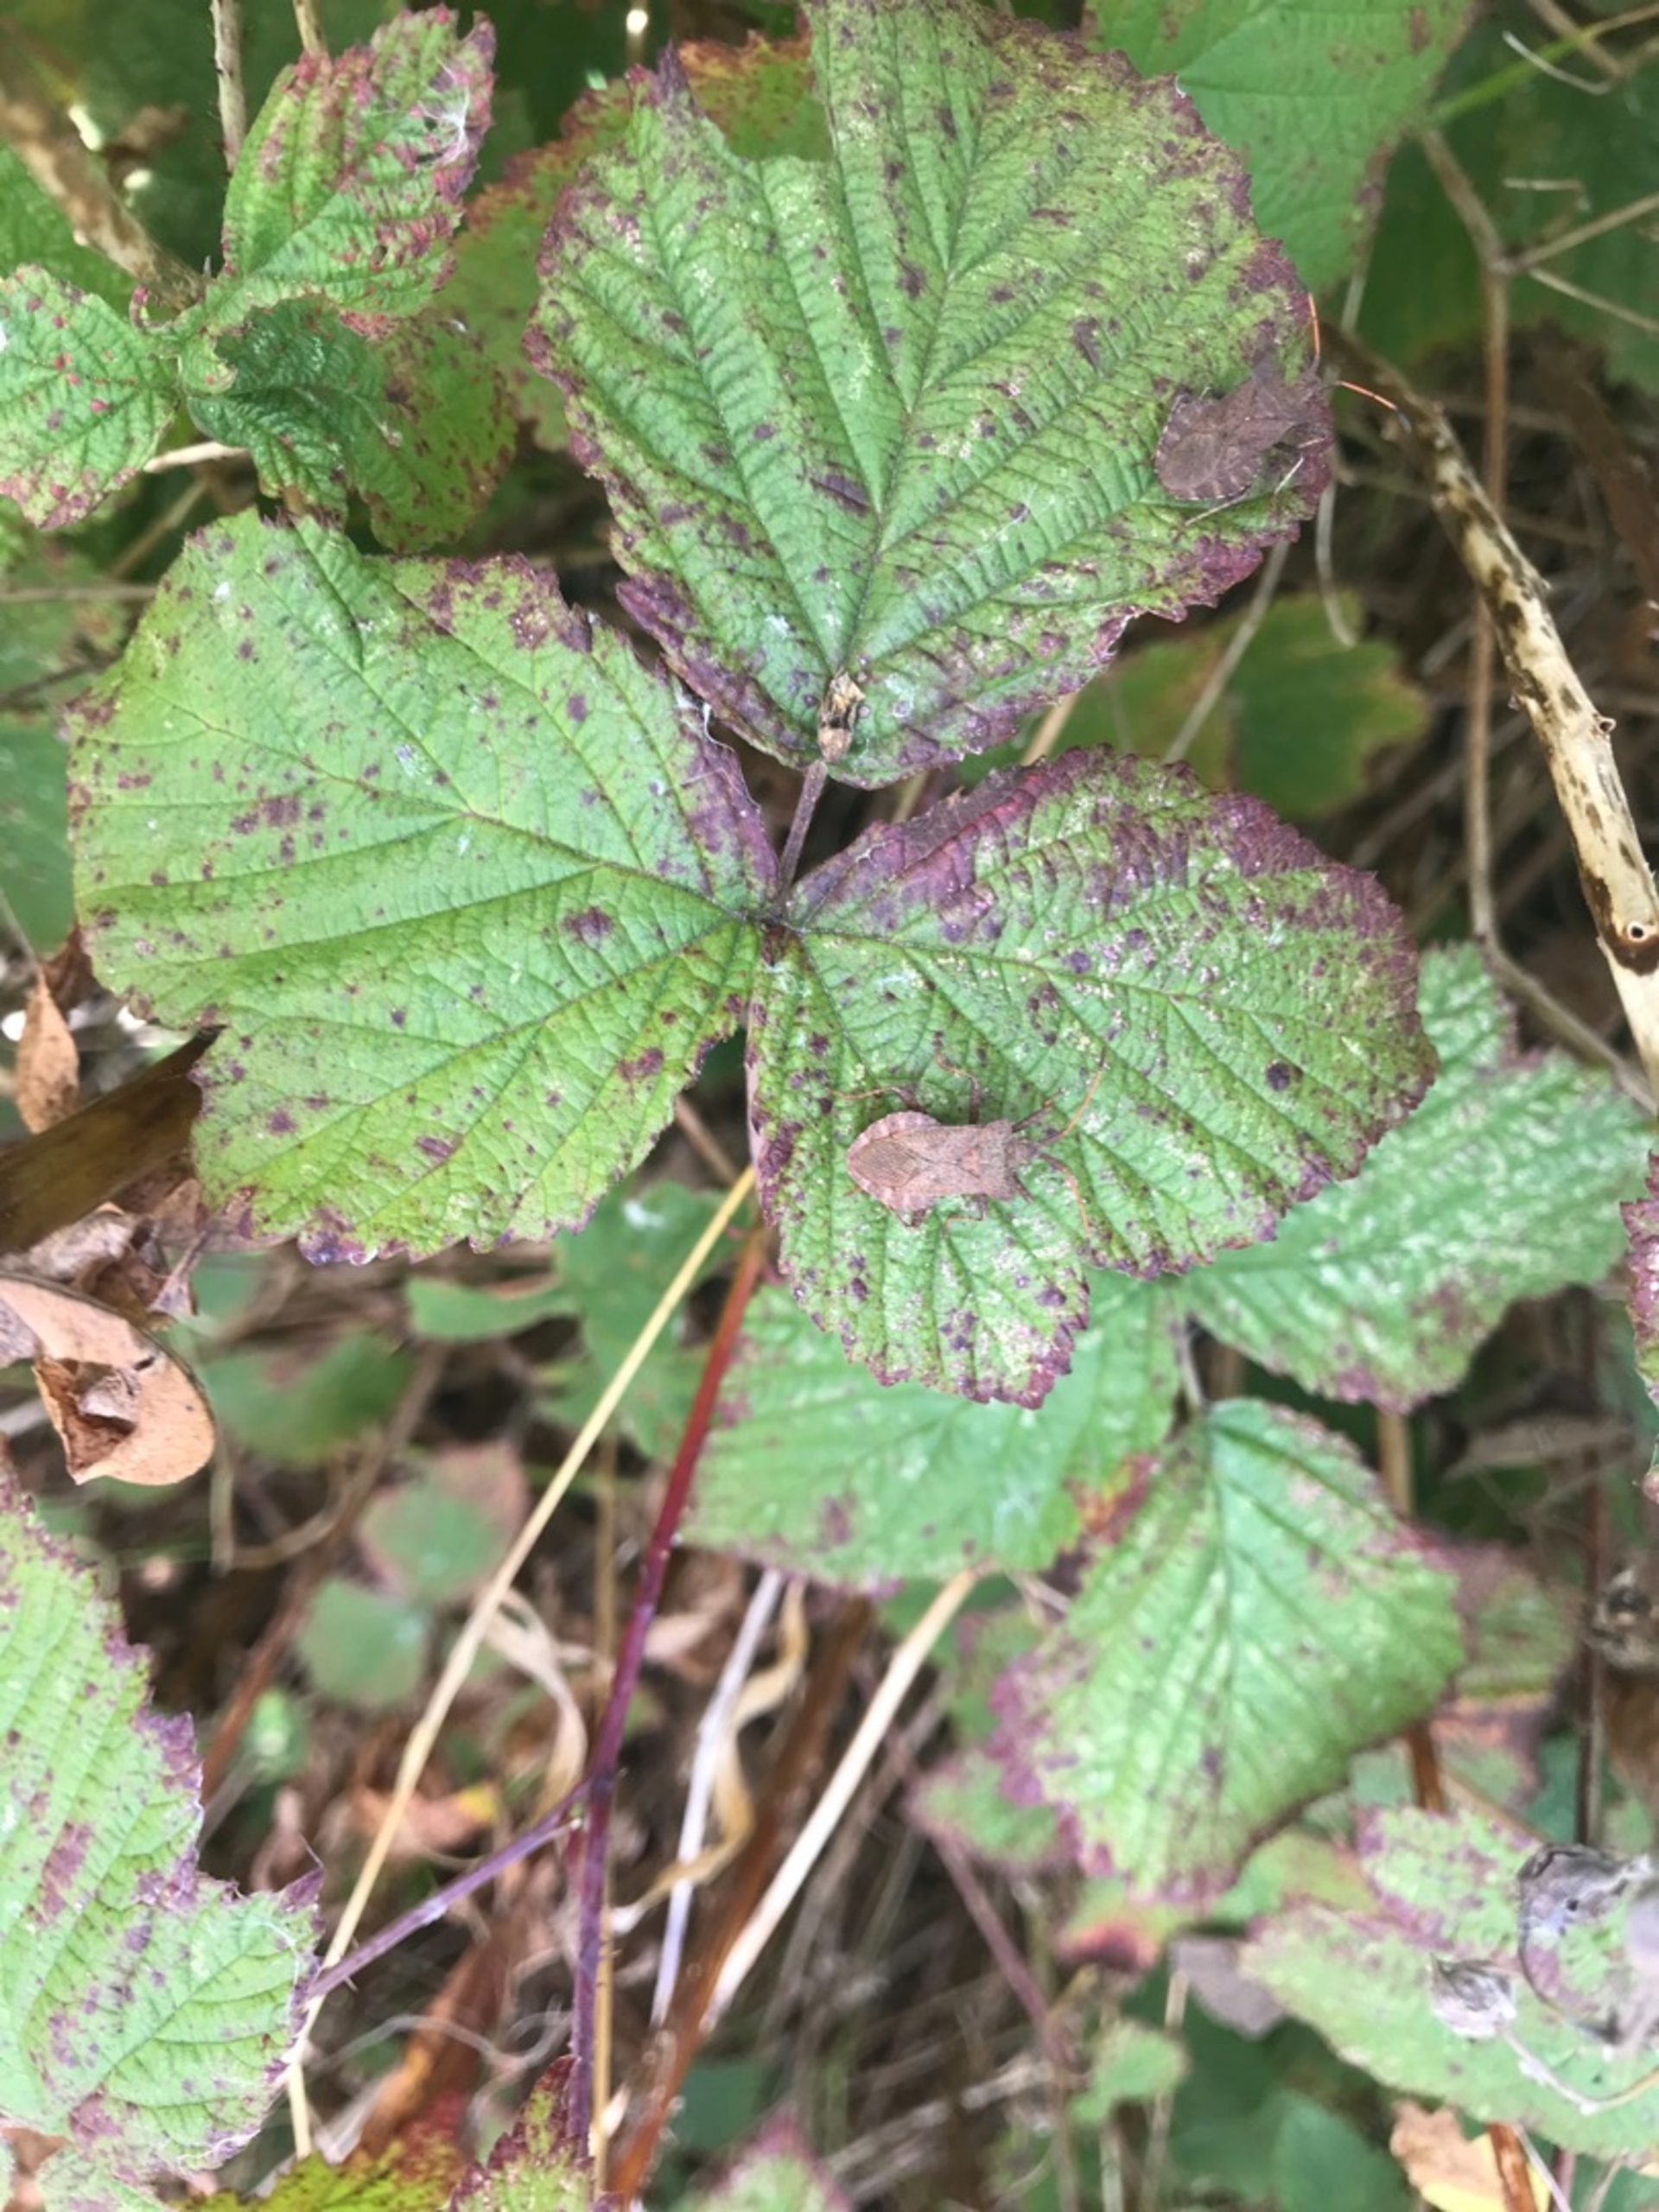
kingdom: Animalia
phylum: Arthropoda
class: Insecta
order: Hemiptera
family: Coreidae
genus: Coreus
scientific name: Coreus marginatus
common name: Skræppetæge
